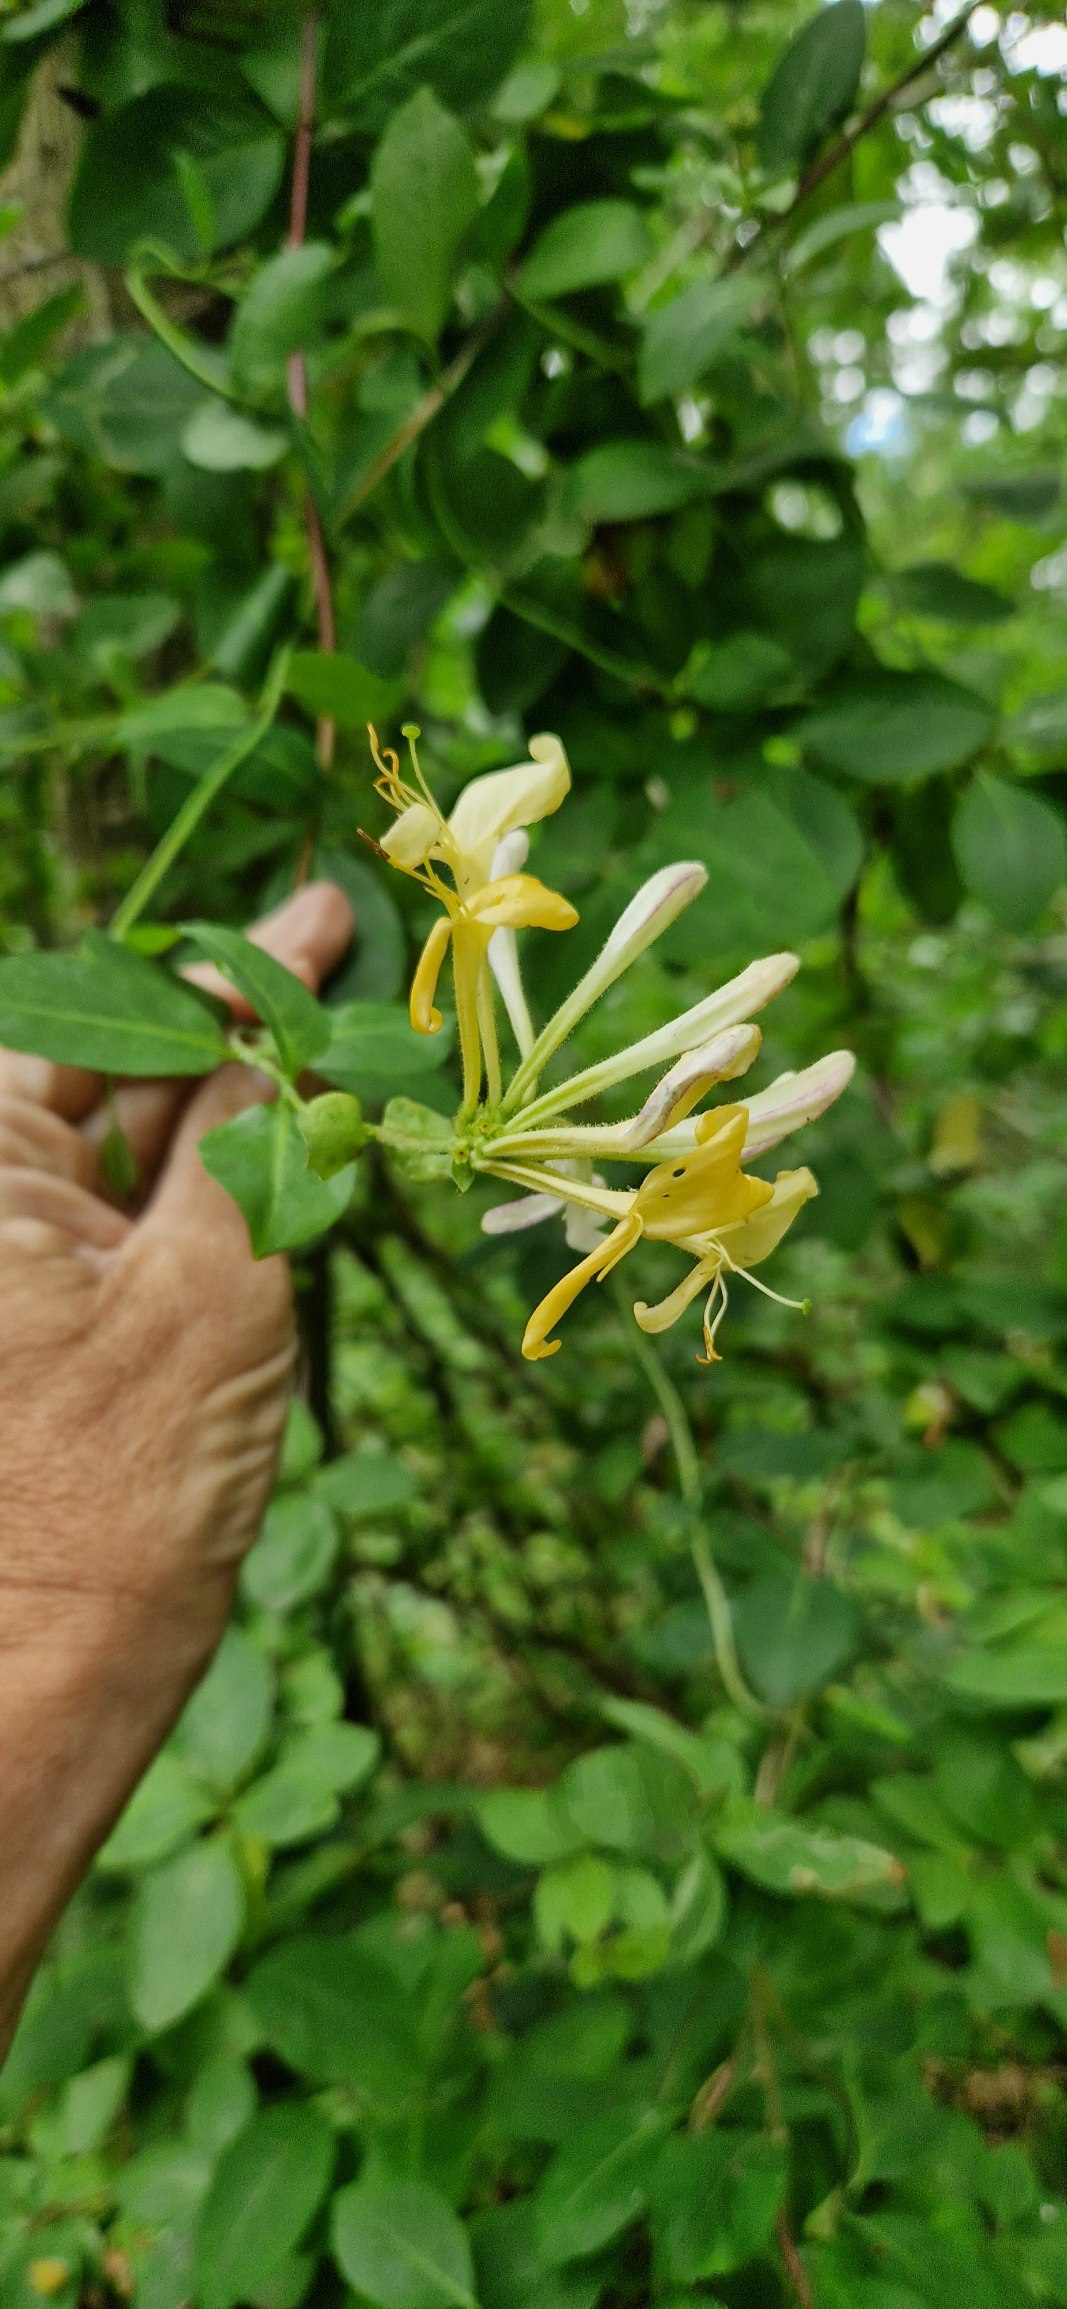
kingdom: Plantae
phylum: Tracheophyta
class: Magnoliopsida
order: Dipsacales
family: Caprifoliaceae
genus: Lonicera
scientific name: Lonicera periclymenum
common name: Almindelig gedeblad
